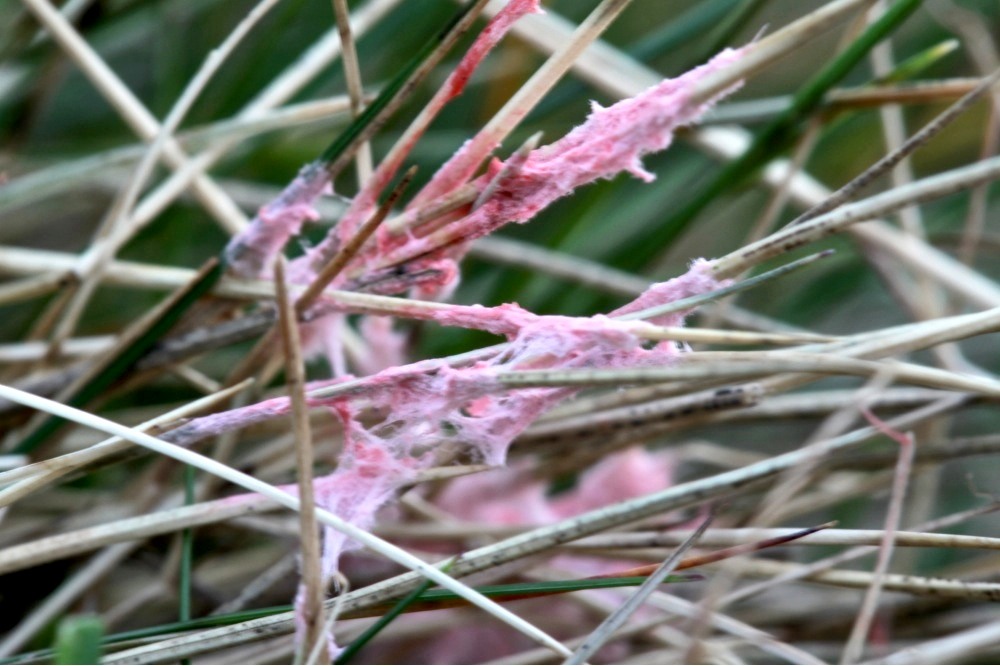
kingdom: Fungi
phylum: Basidiomycota
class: Agaricomycetes
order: Corticiales
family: Corticiaceae
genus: Laetisaria
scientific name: Laetisaria fuciformis
